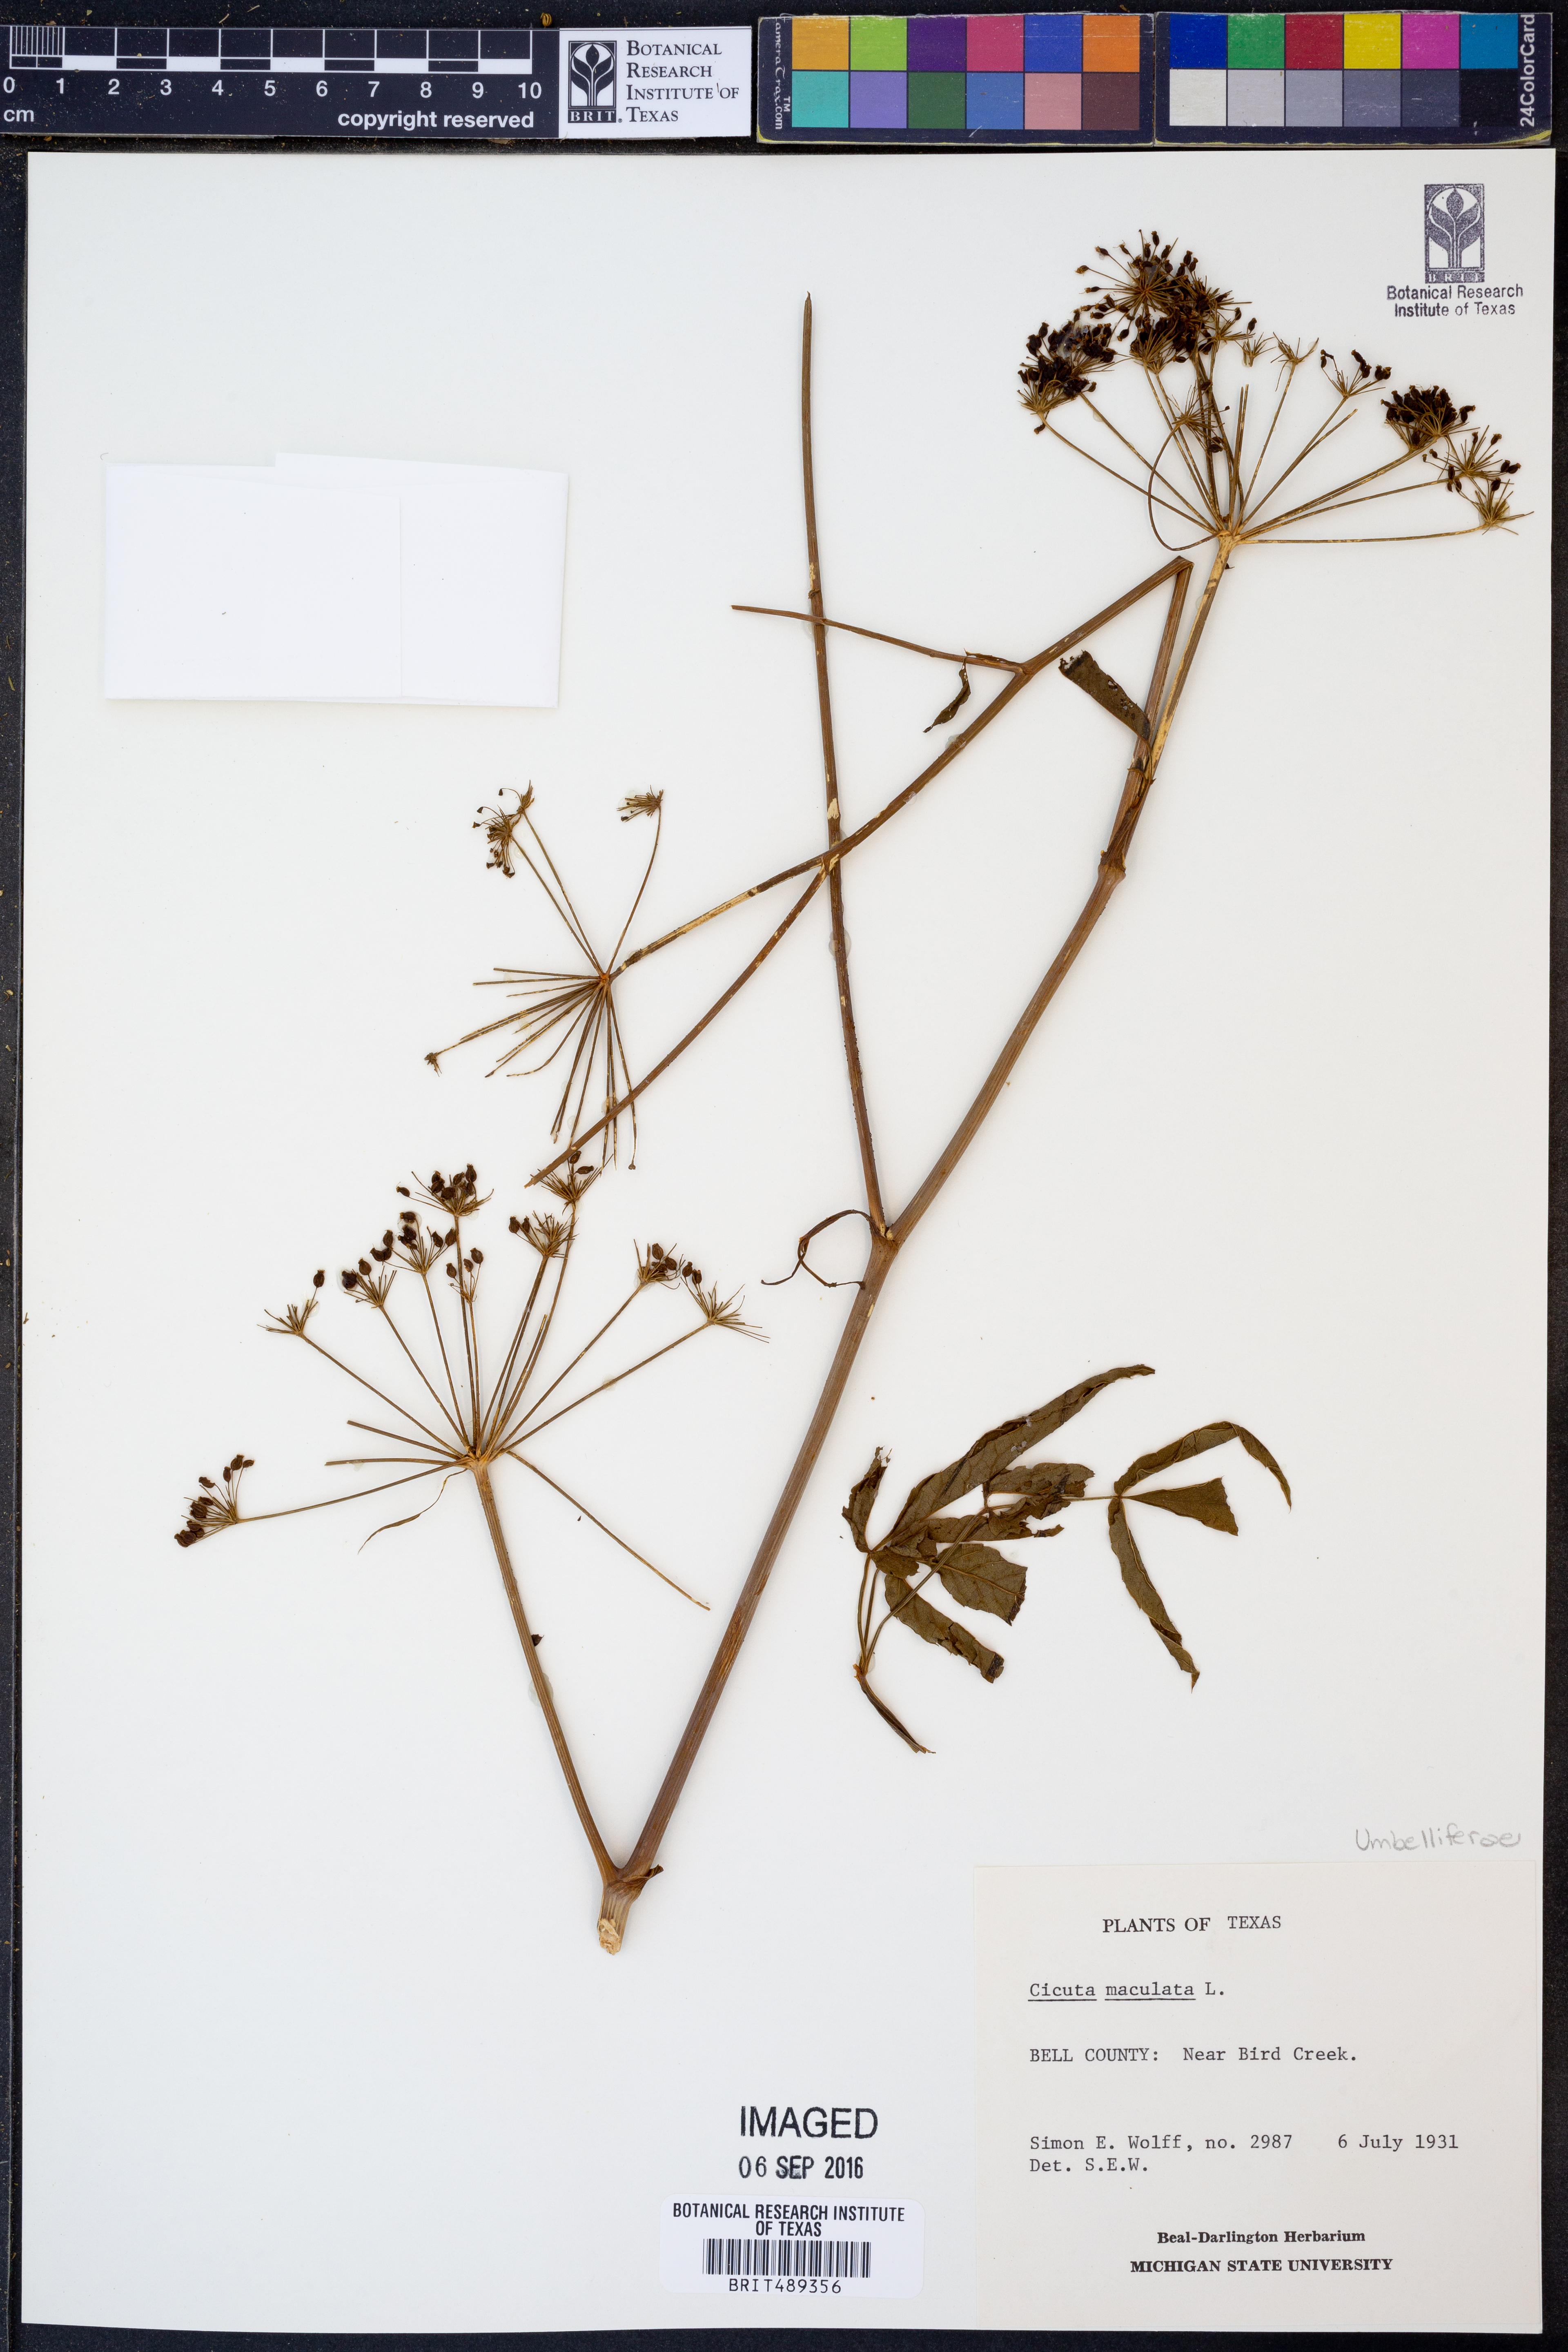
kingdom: Plantae
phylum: Tracheophyta
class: Magnoliopsida
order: Apiales
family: Apiaceae
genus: Cicuta
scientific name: Cicuta maculata
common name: Spotted cowbane
